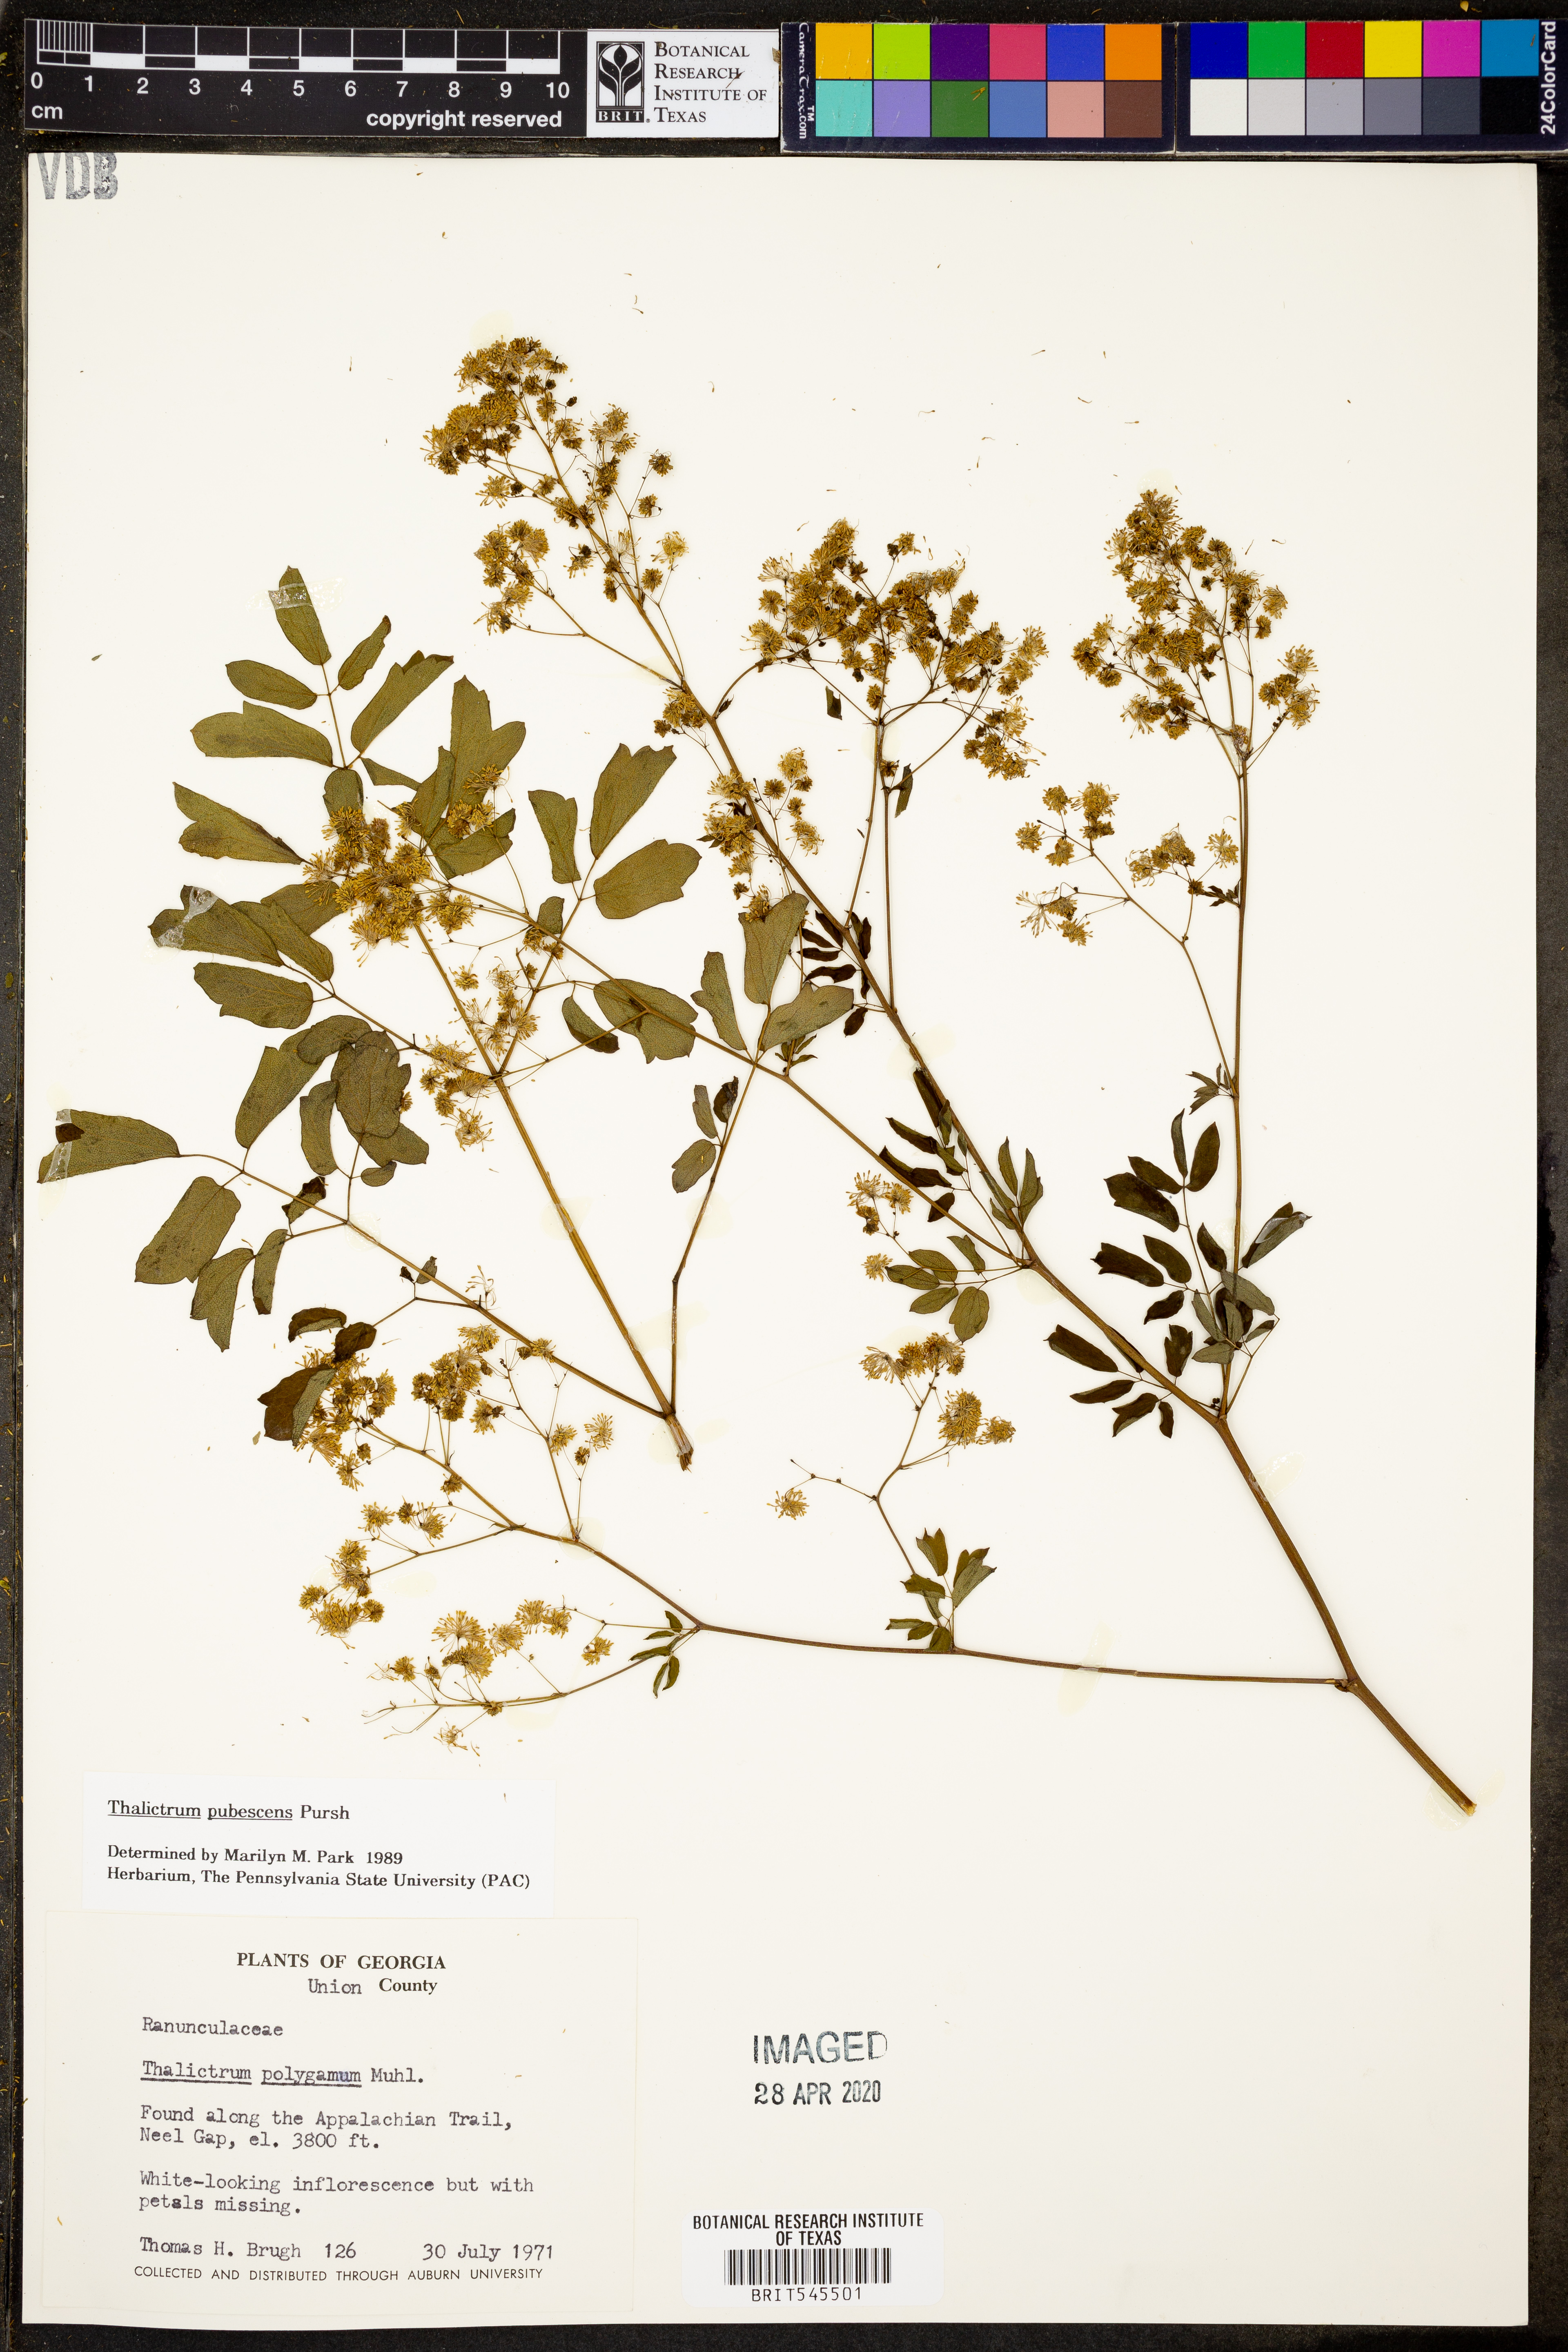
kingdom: Plantae
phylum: Tracheophyta
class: Magnoliopsida
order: Ranunculales
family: Ranunculaceae
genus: Thalictrum
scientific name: Thalictrum pubescens
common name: King-of-the-meadow
